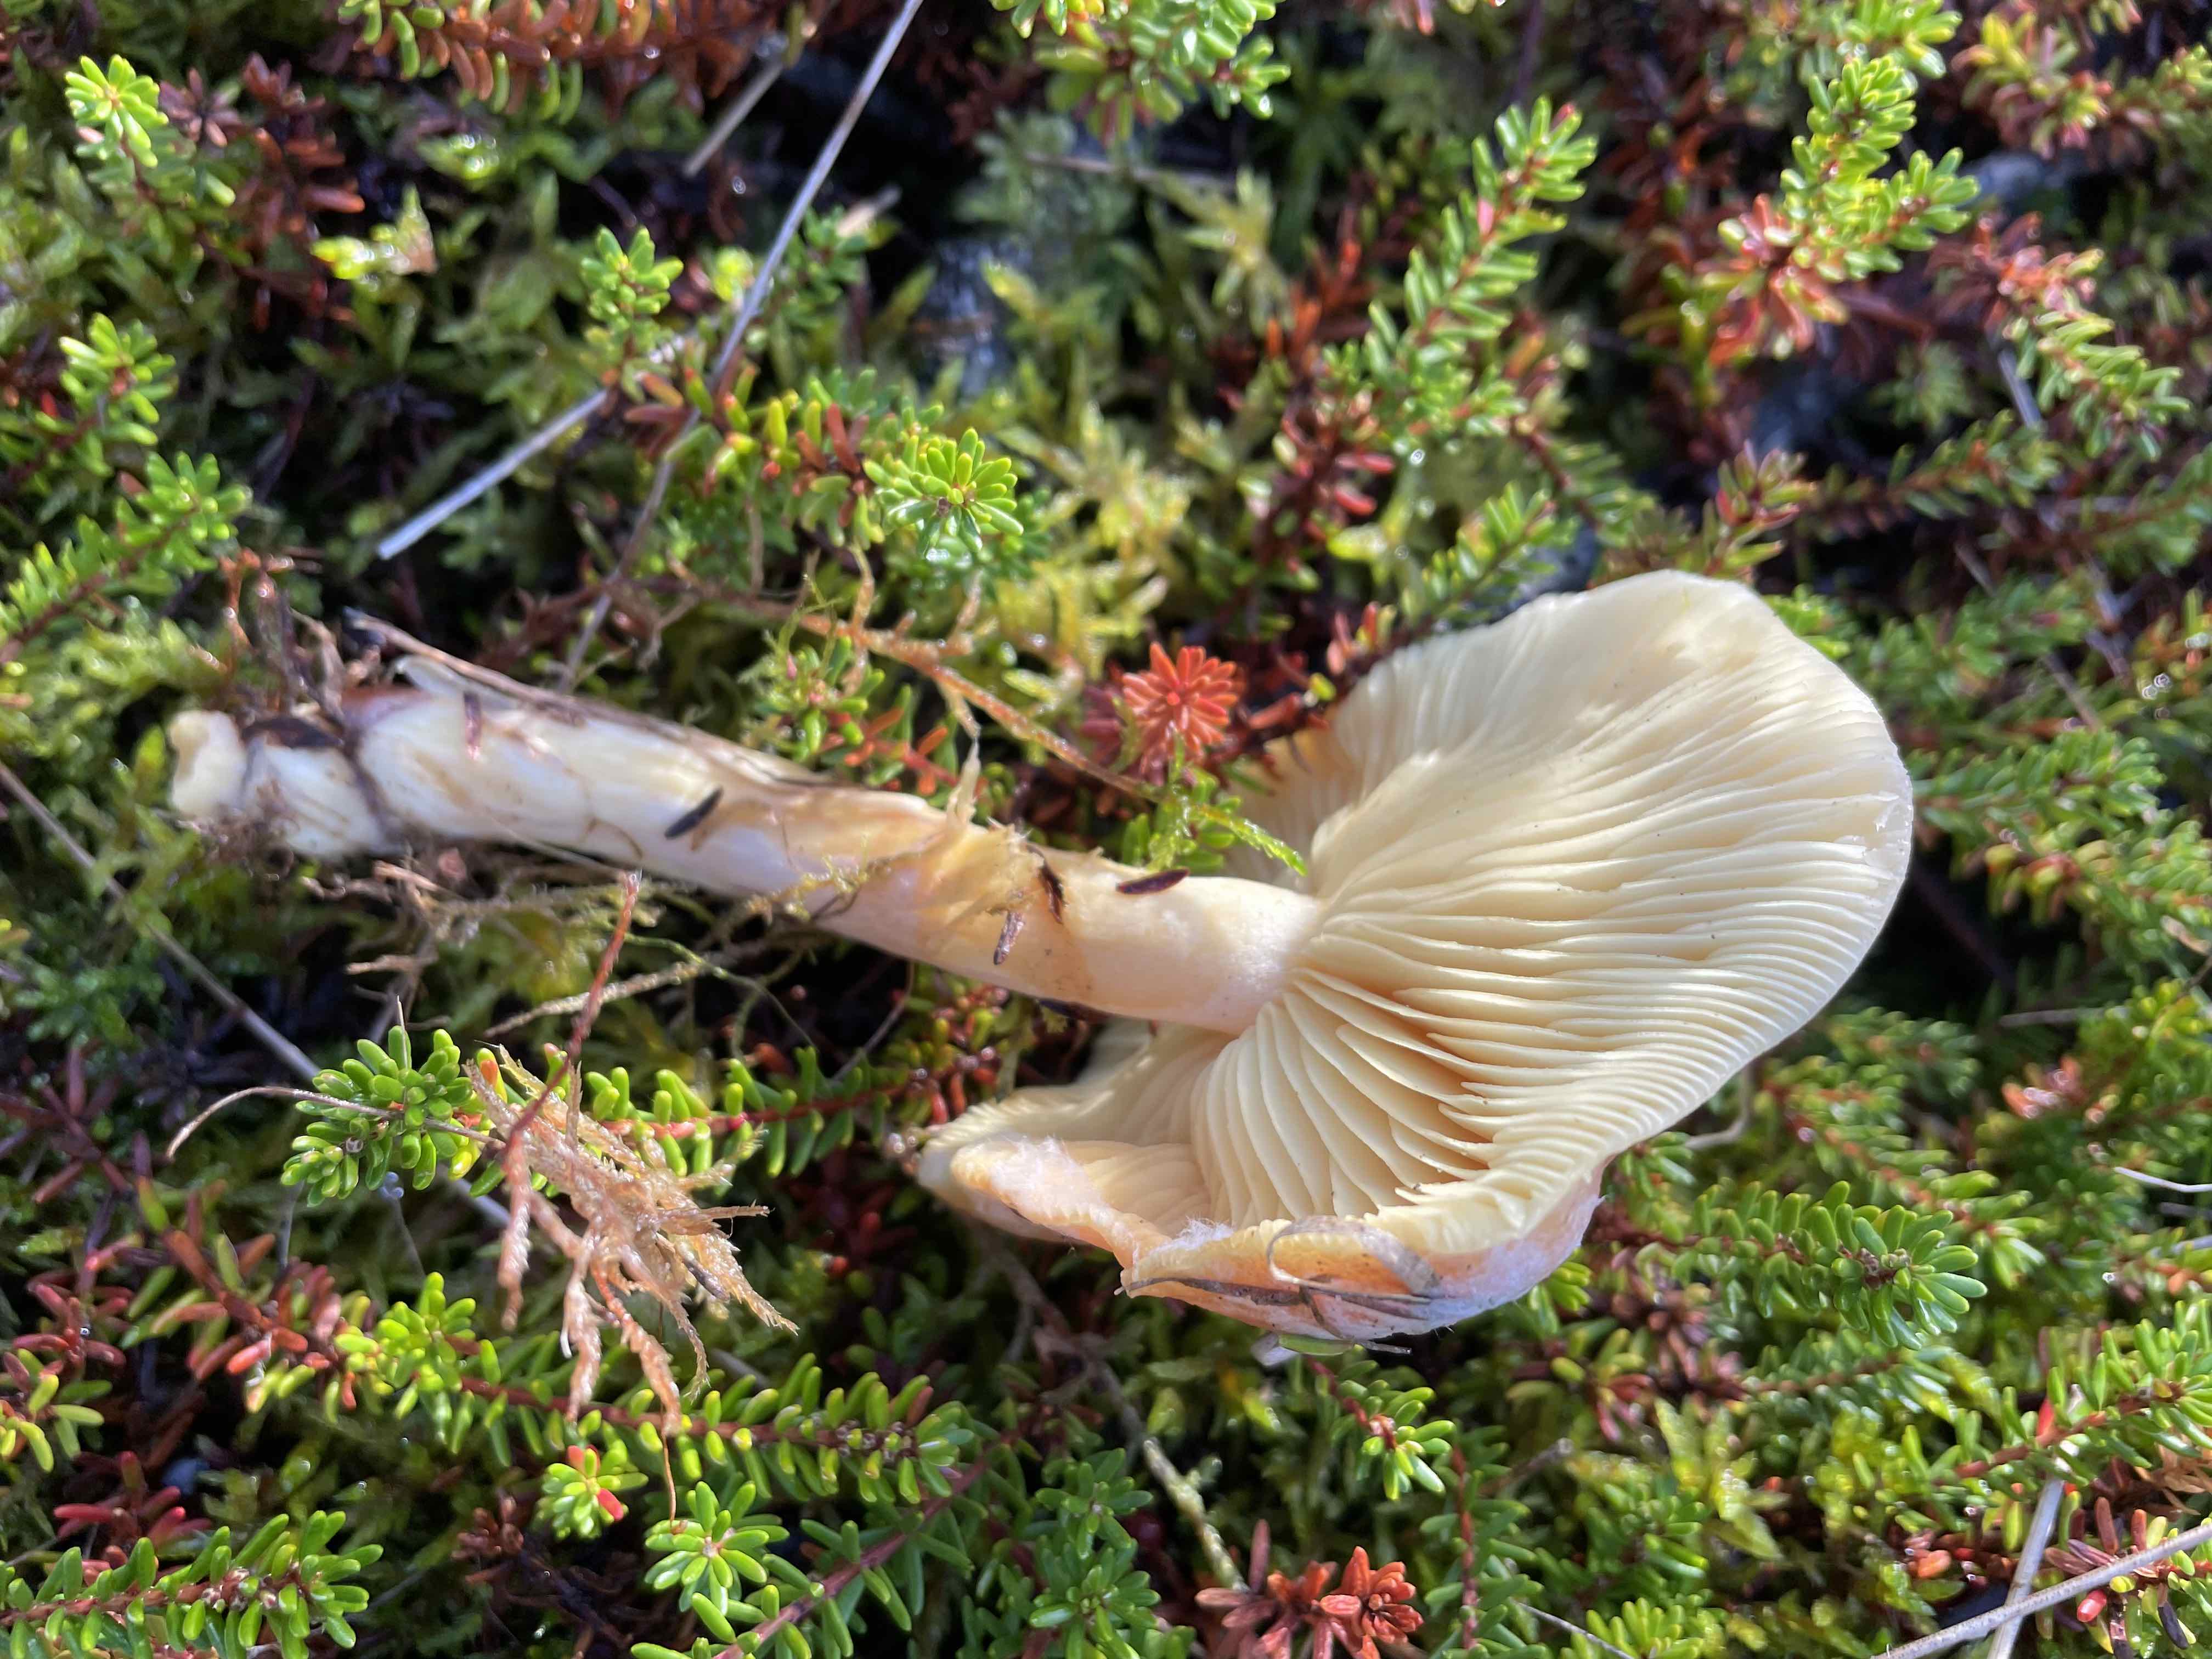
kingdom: Fungi
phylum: Basidiomycota
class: Agaricomycetes
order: Agaricales
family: Tricholomataceae
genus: Tricholomopsis
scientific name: Tricholomopsis rutilans
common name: purpur-væbnerhat
